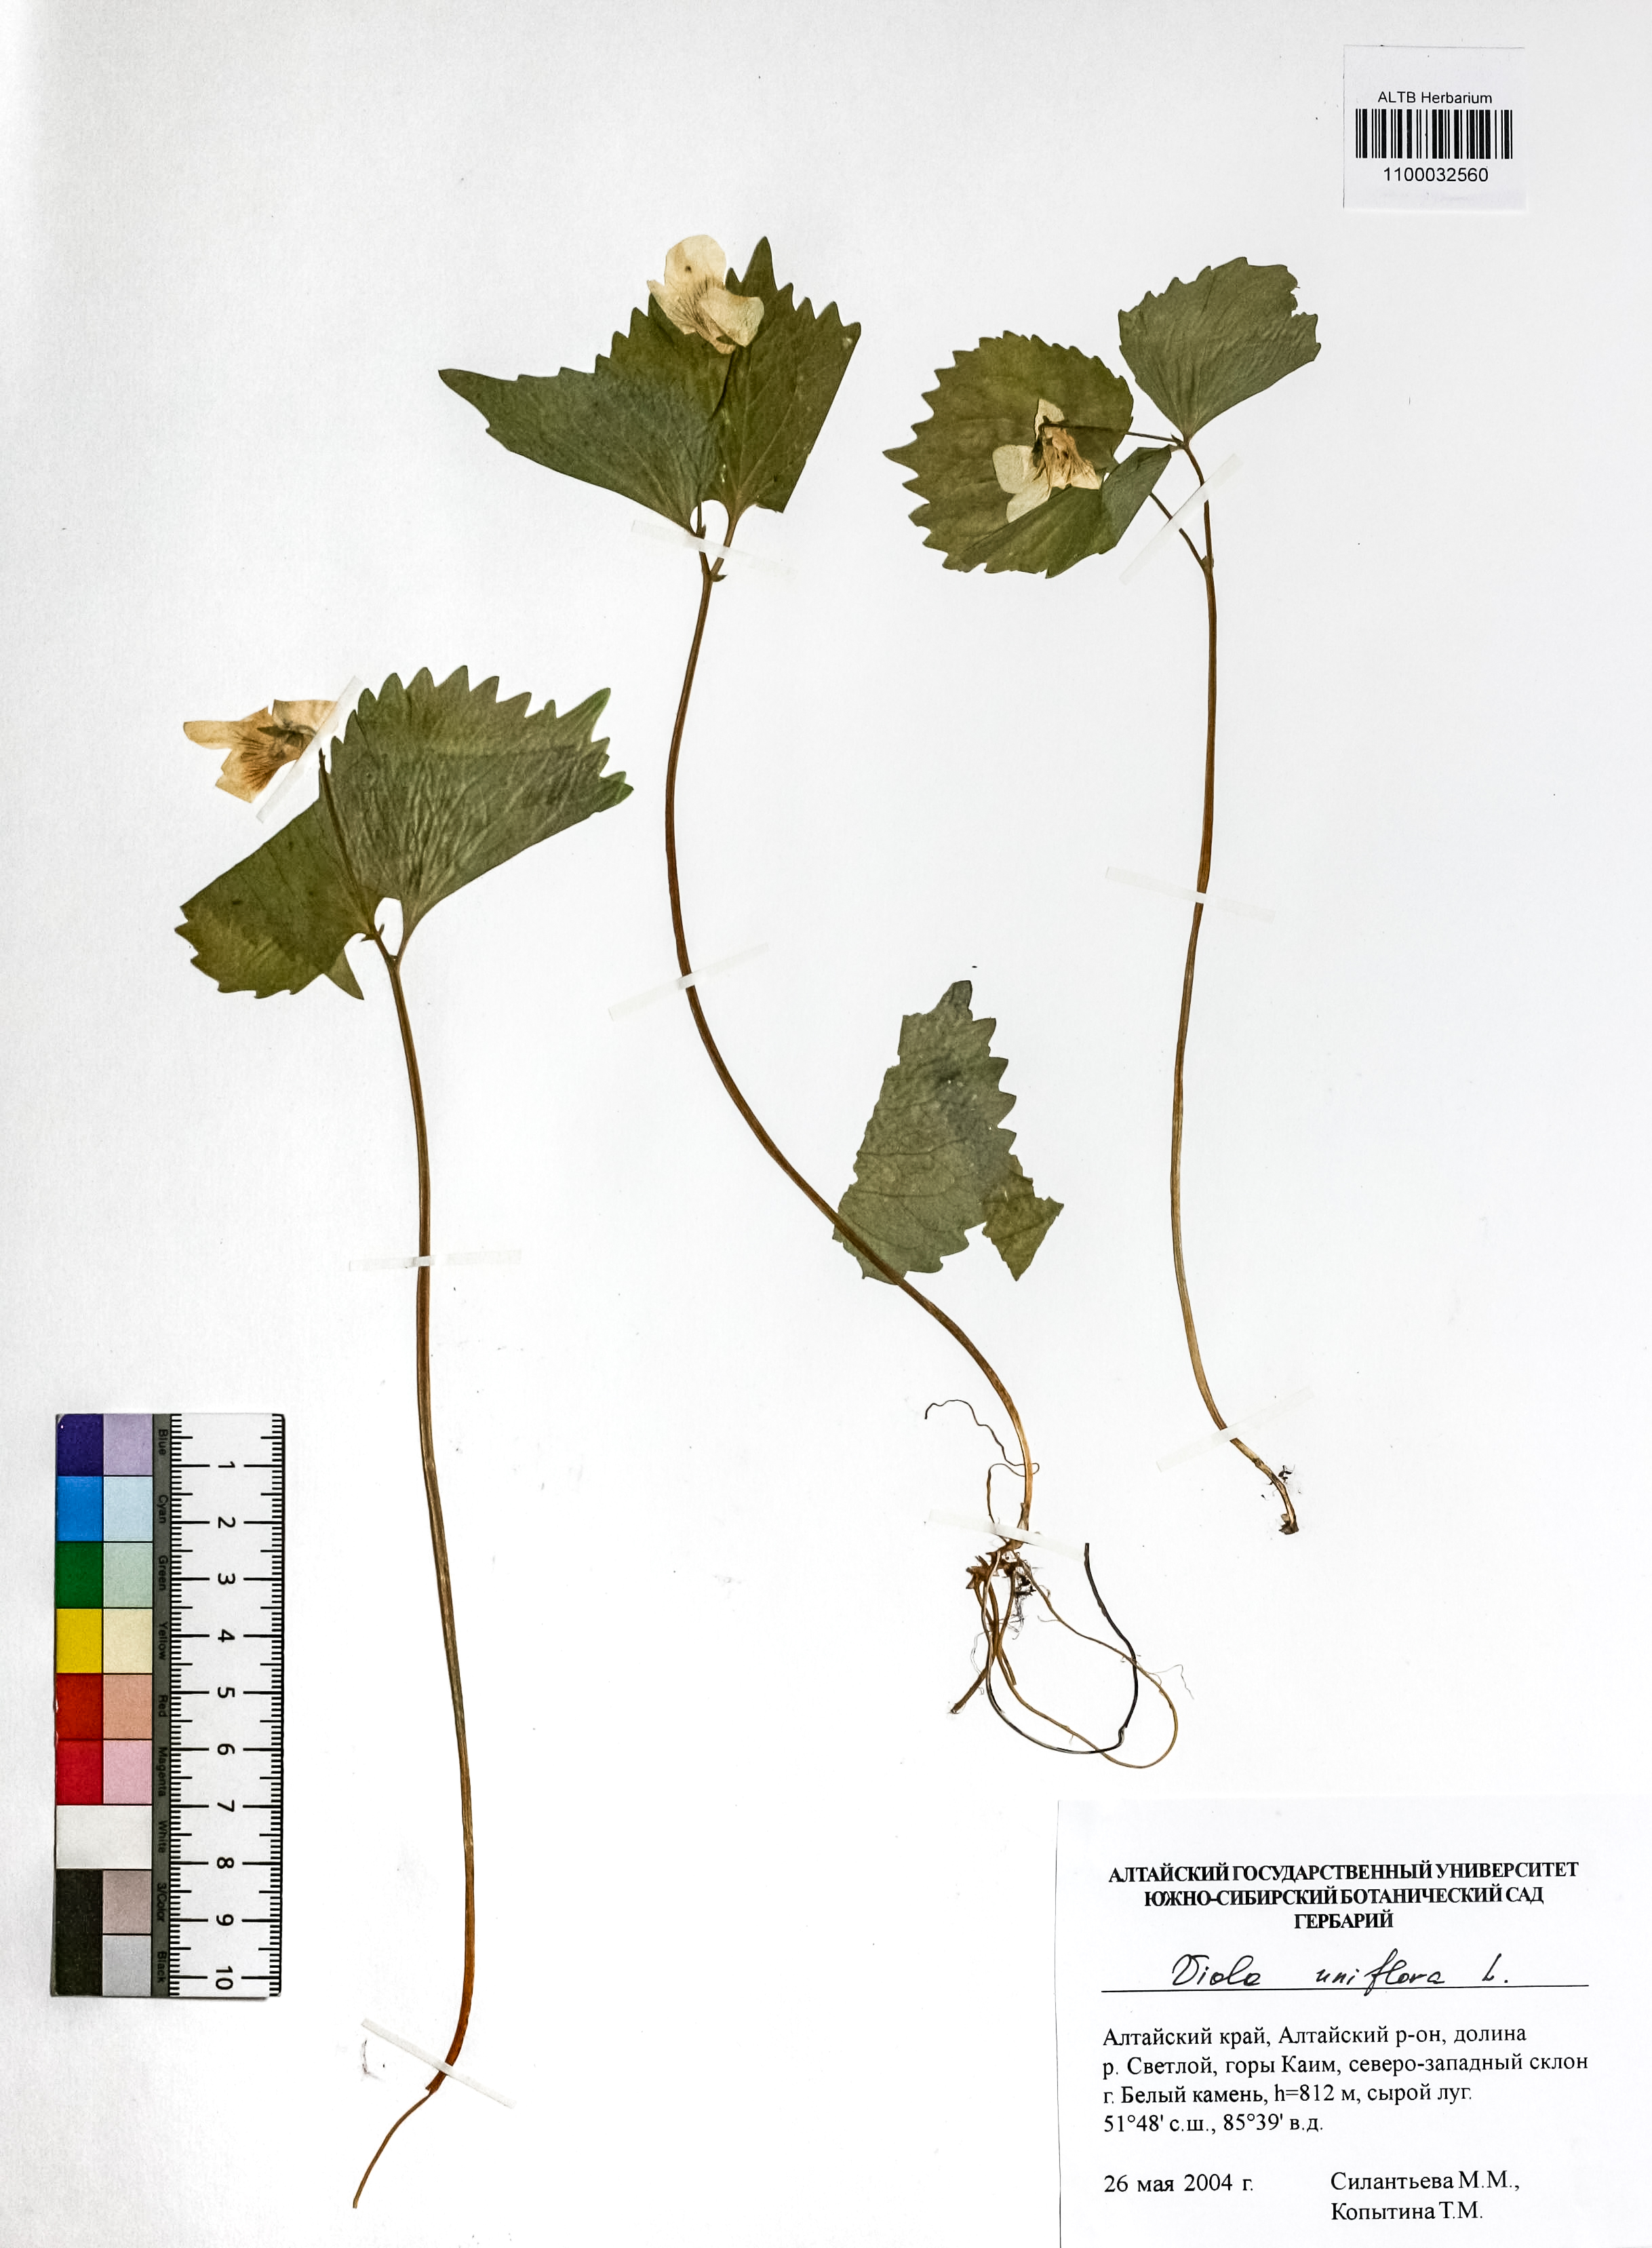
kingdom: Plantae
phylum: Tracheophyta
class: Magnoliopsida
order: Malpighiales
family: Violaceae
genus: Viola
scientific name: Viola uniflora
